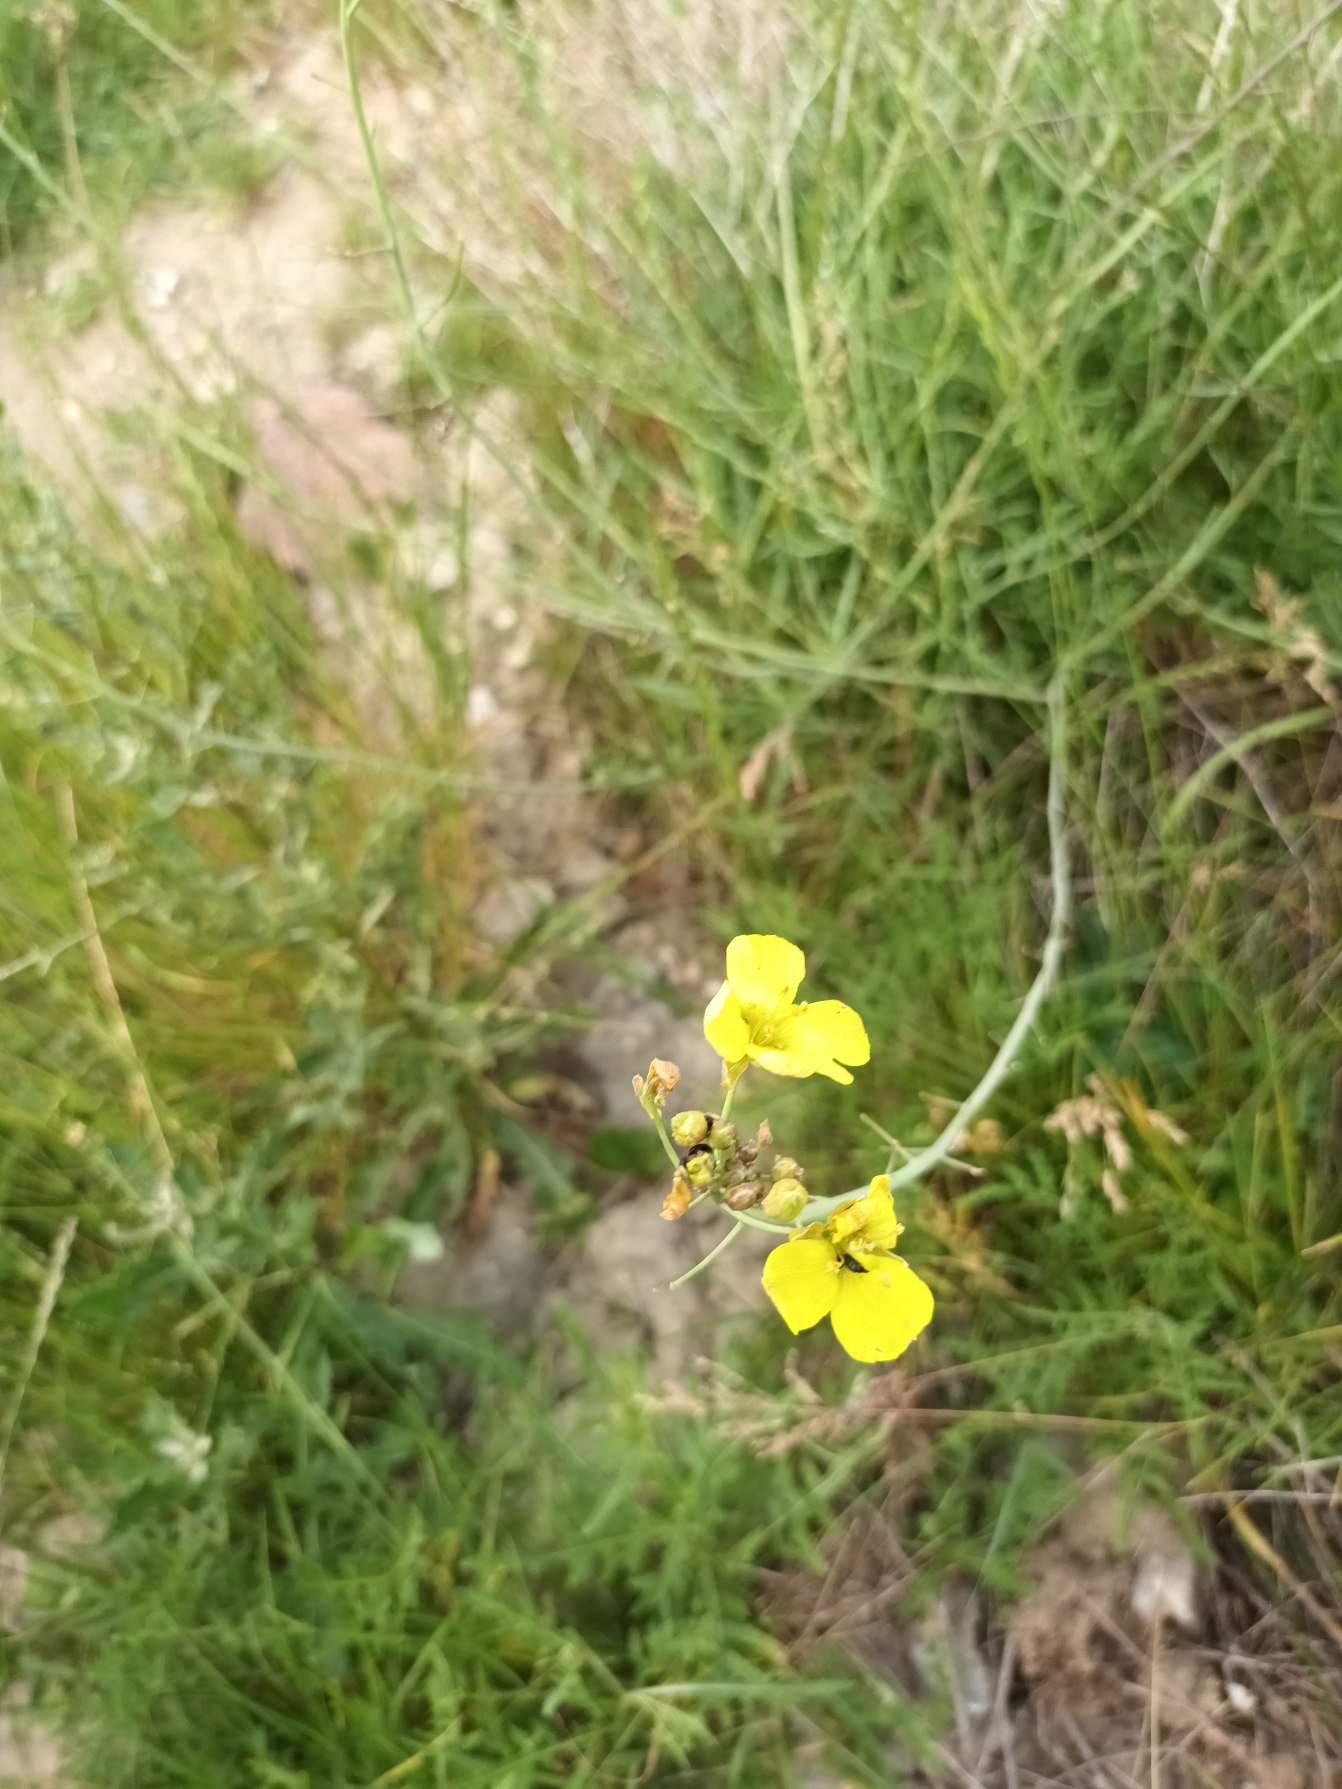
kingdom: Plantae
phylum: Tracheophyta
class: Magnoliopsida
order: Brassicales
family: Brassicaceae
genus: Diplotaxis
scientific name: Diplotaxis tenuifolia
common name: Sandsennep
